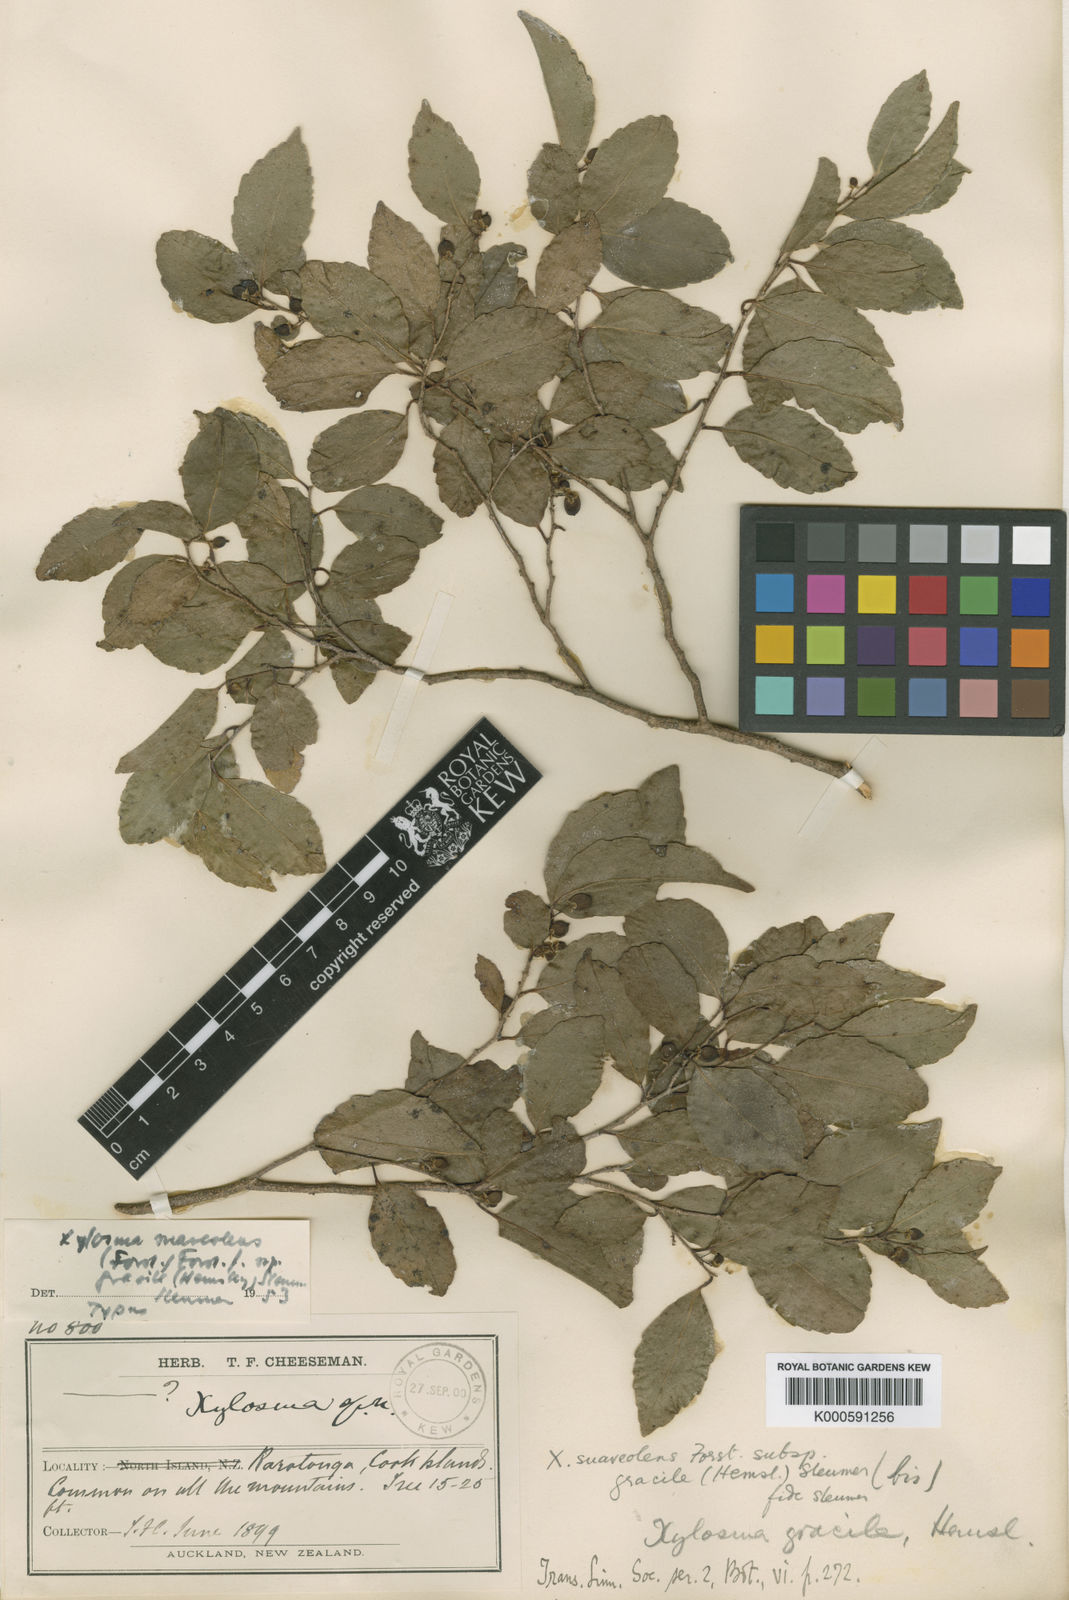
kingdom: Plantae
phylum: Tracheophyta
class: Magnoliopsida
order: Malpighiales
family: Salicaceae
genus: Xylosma
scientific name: Xylosma suaveolens
